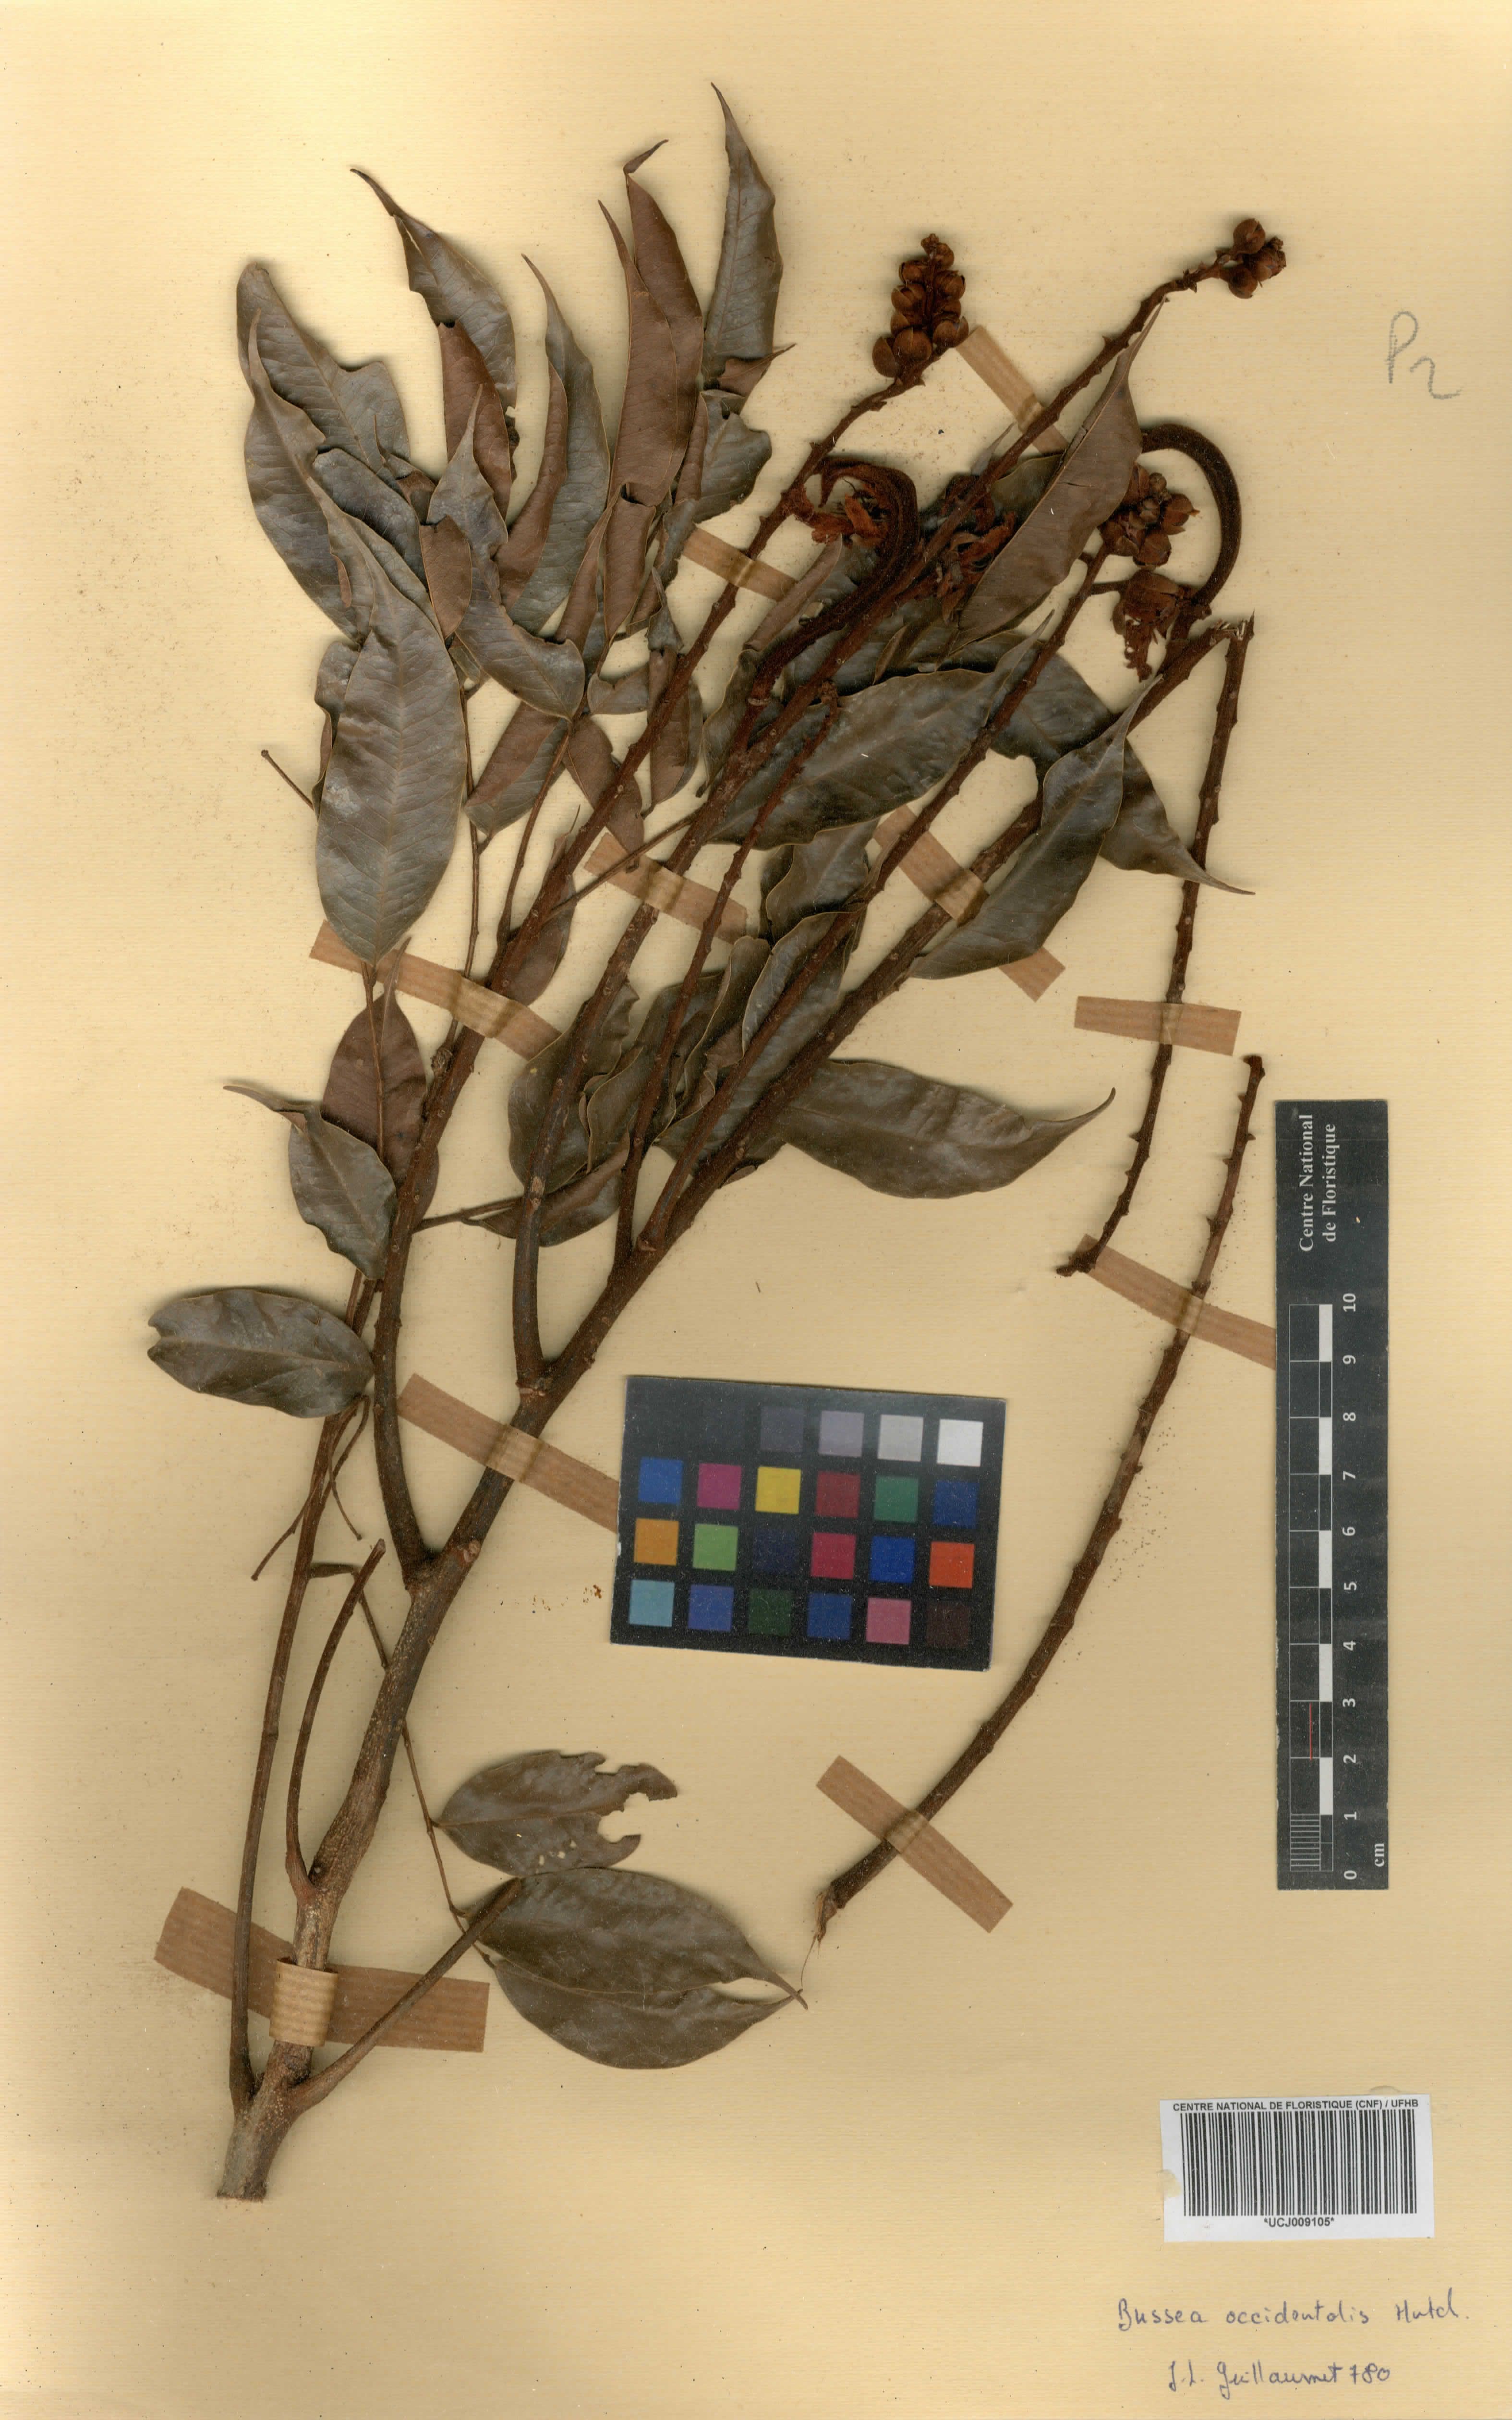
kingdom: Plantae
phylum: Tracheophyta
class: Magnoliopsida
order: Fabales
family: Fabaceae
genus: Bussea
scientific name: Bussea
